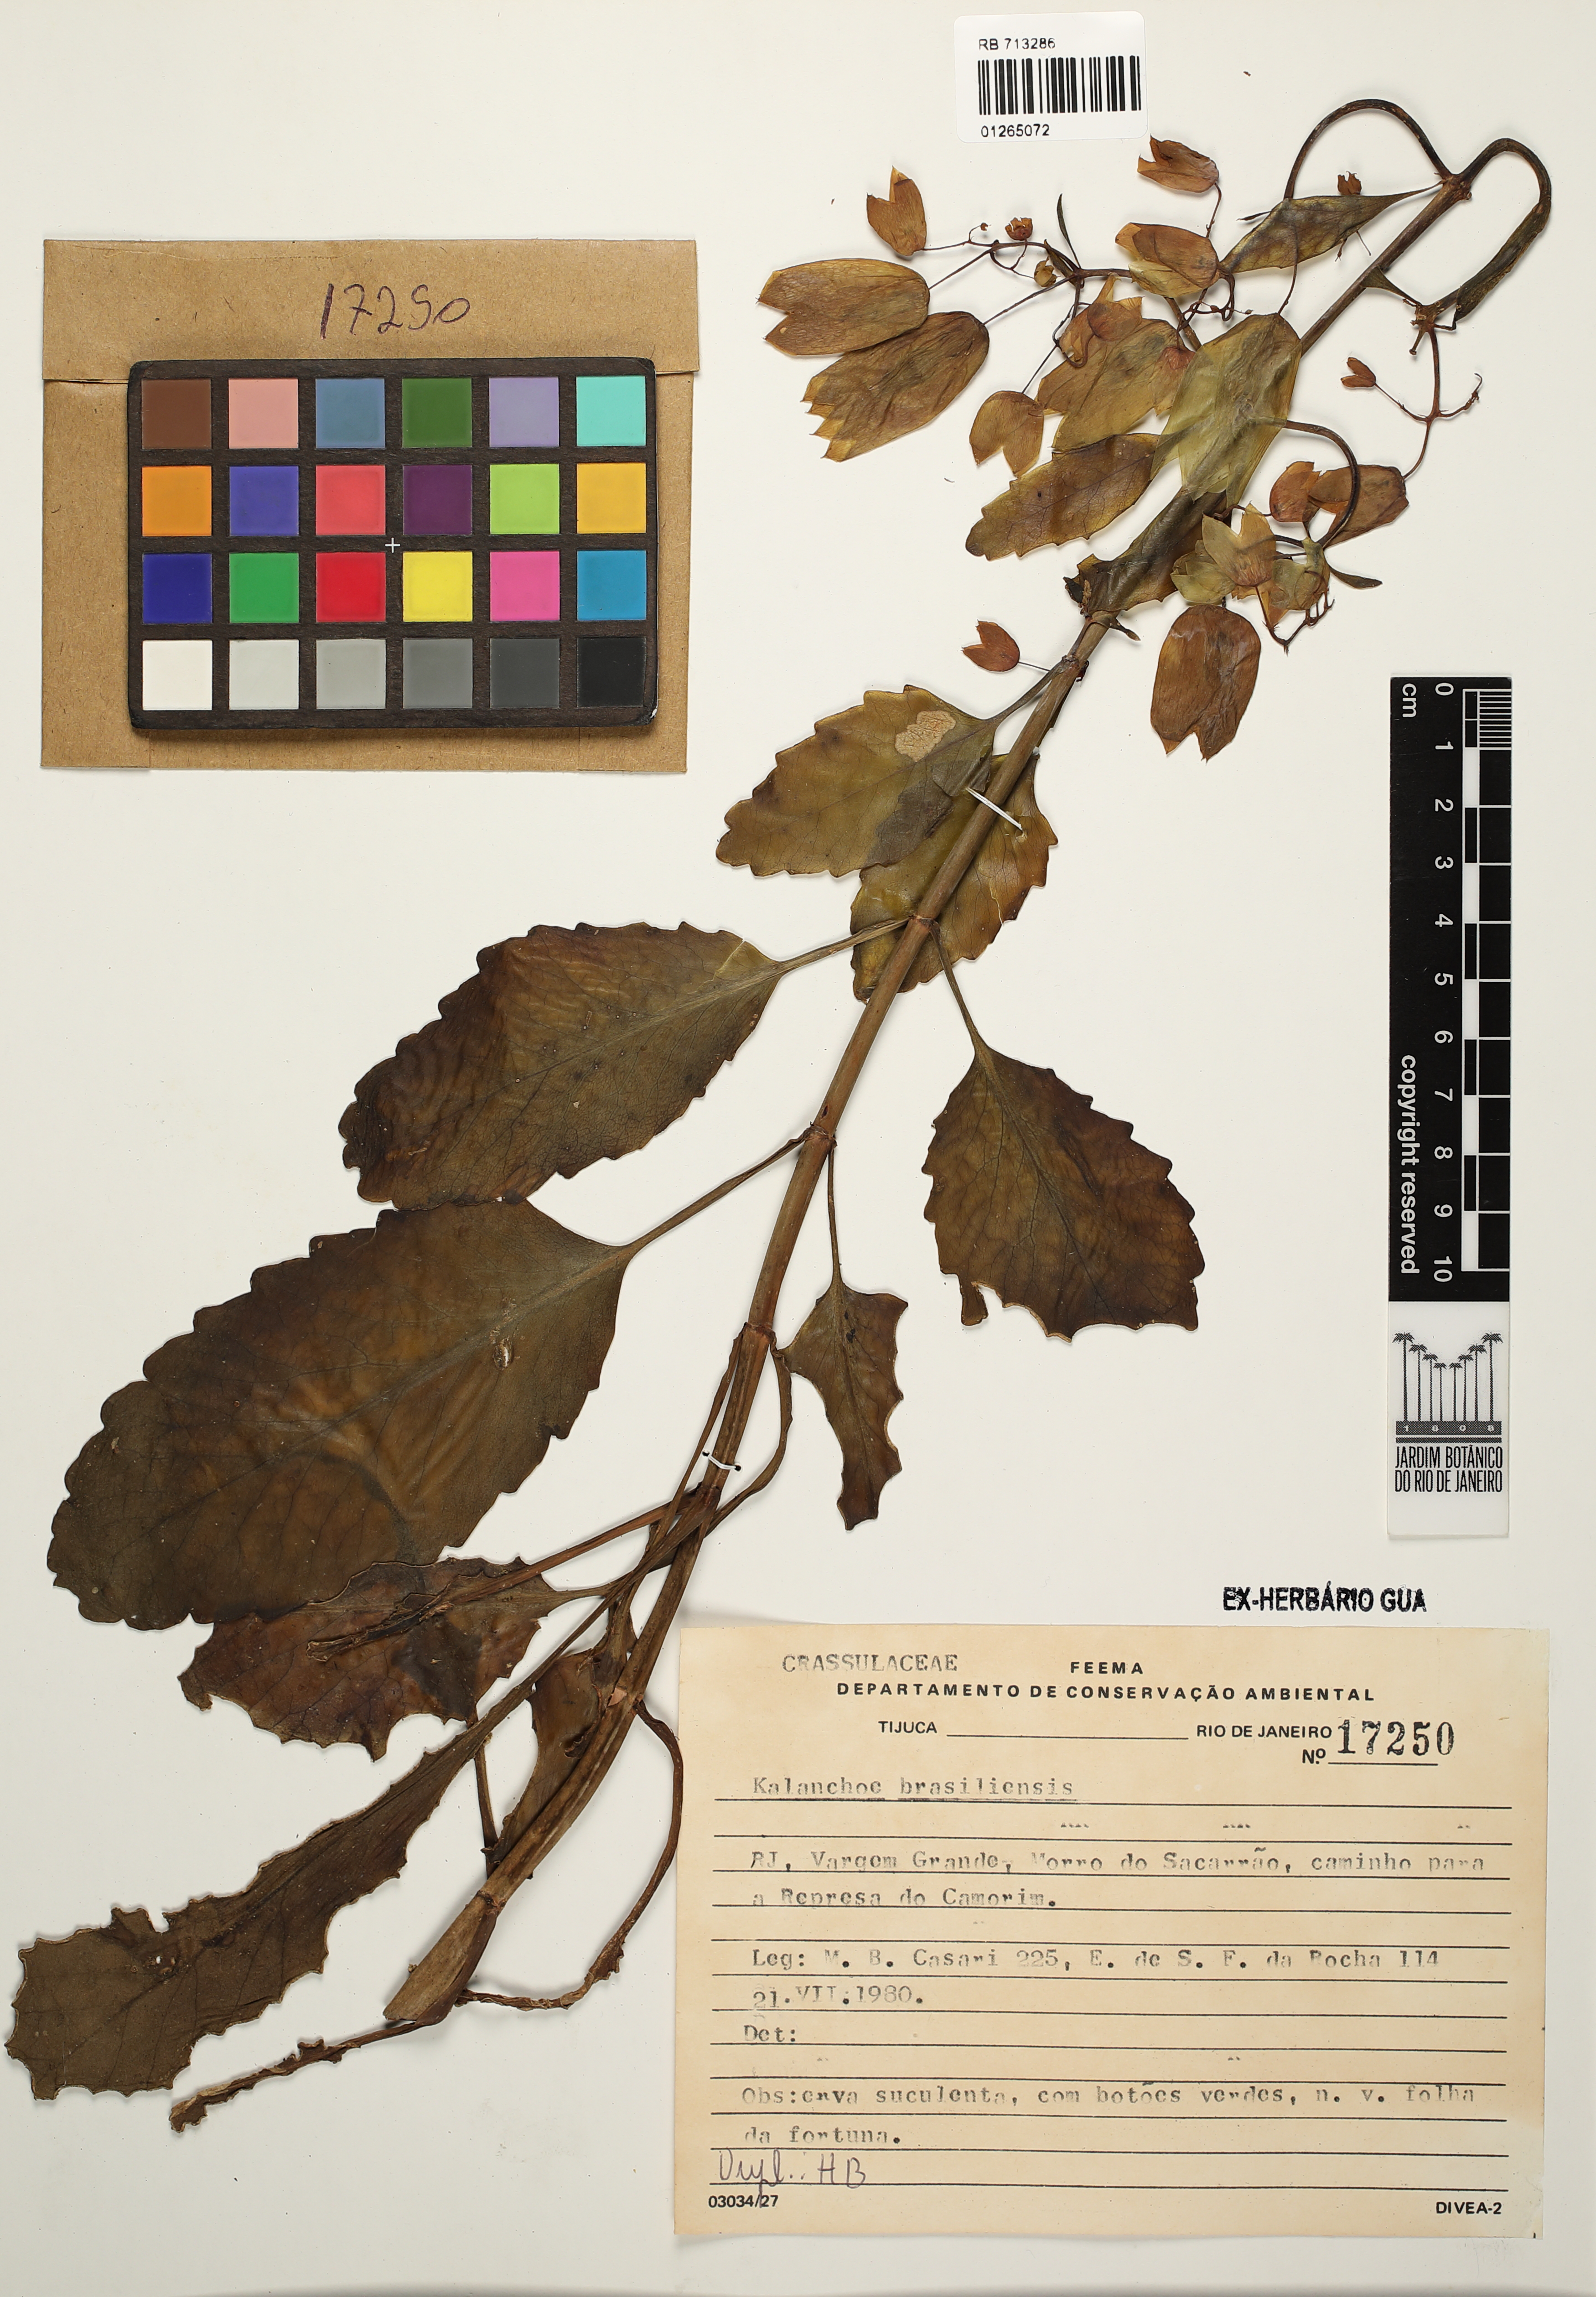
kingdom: Plantae
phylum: Tracheophyta
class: Magnoliopsida
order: Saxifragales
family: Crassulaceae
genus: Kalanchoe
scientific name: Kalanchoe crenata
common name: Neverdie
